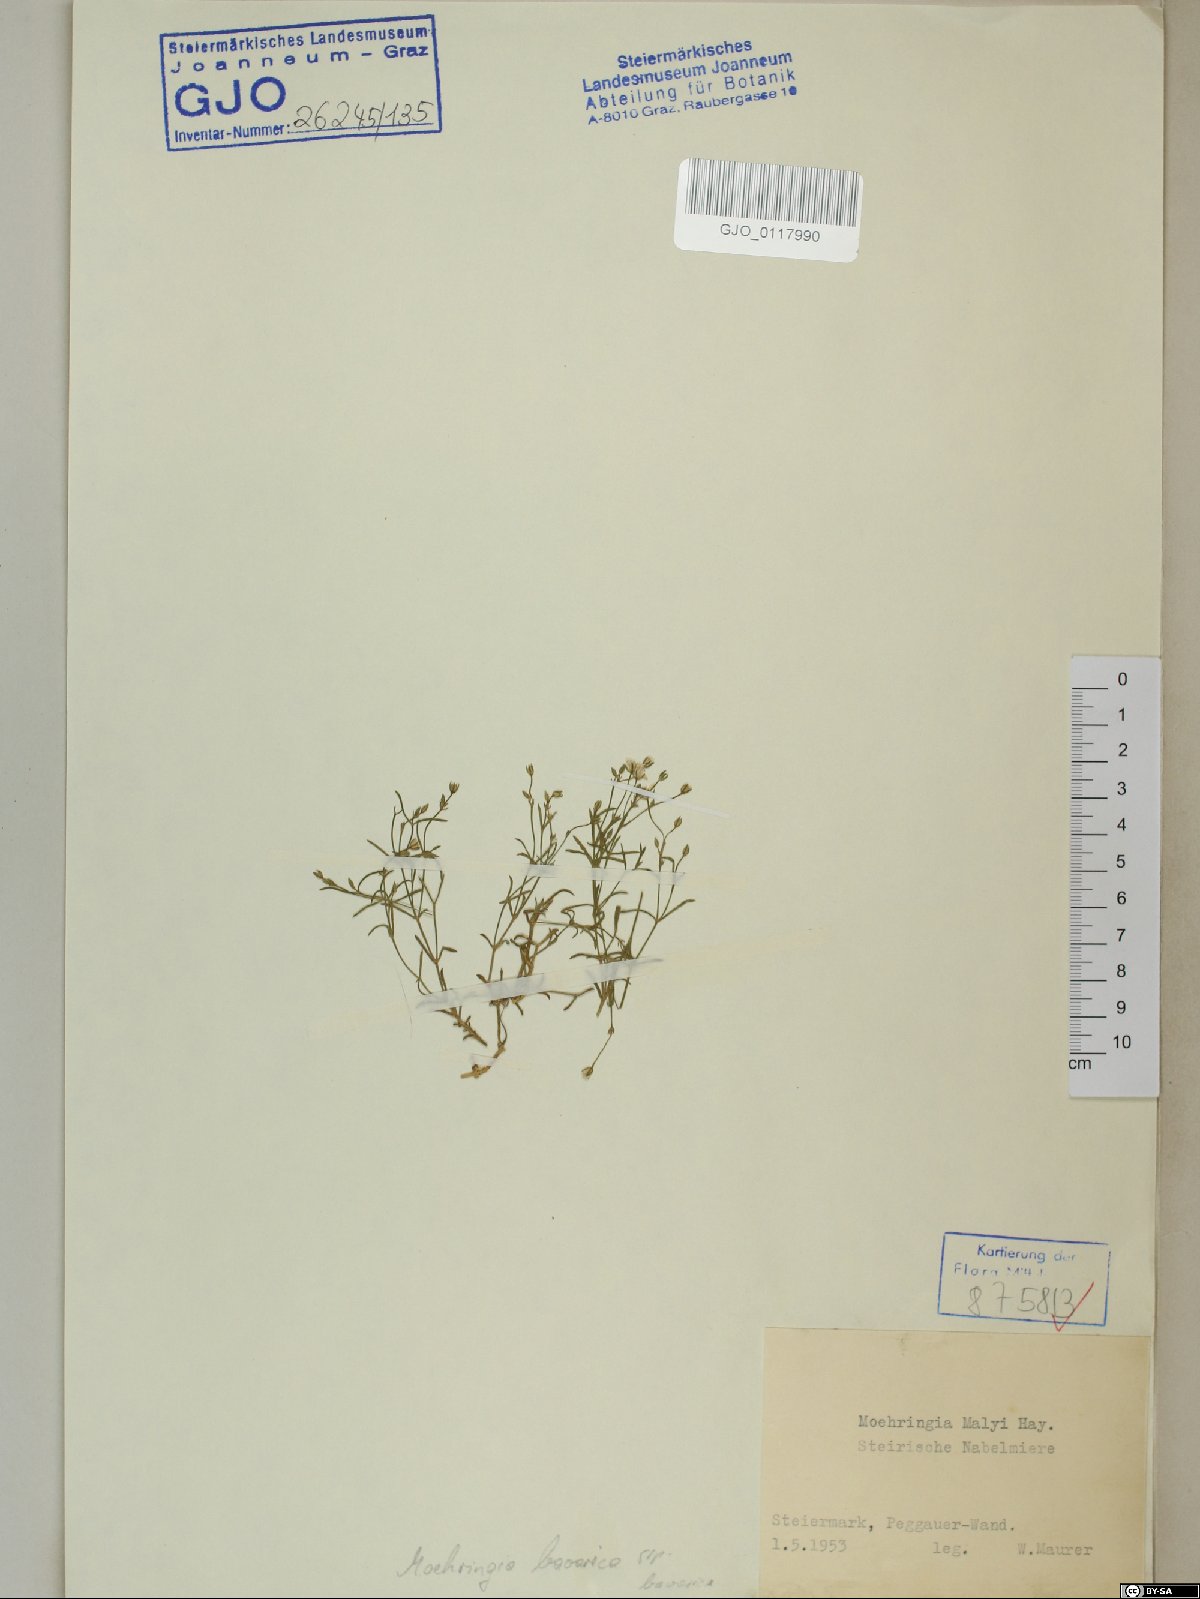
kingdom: Plantae
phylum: Tracheophyta
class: Magnoliopsida
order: Caryophyllales
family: Caryophyllaceae
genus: Moehringia
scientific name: Moehringia bavarica
